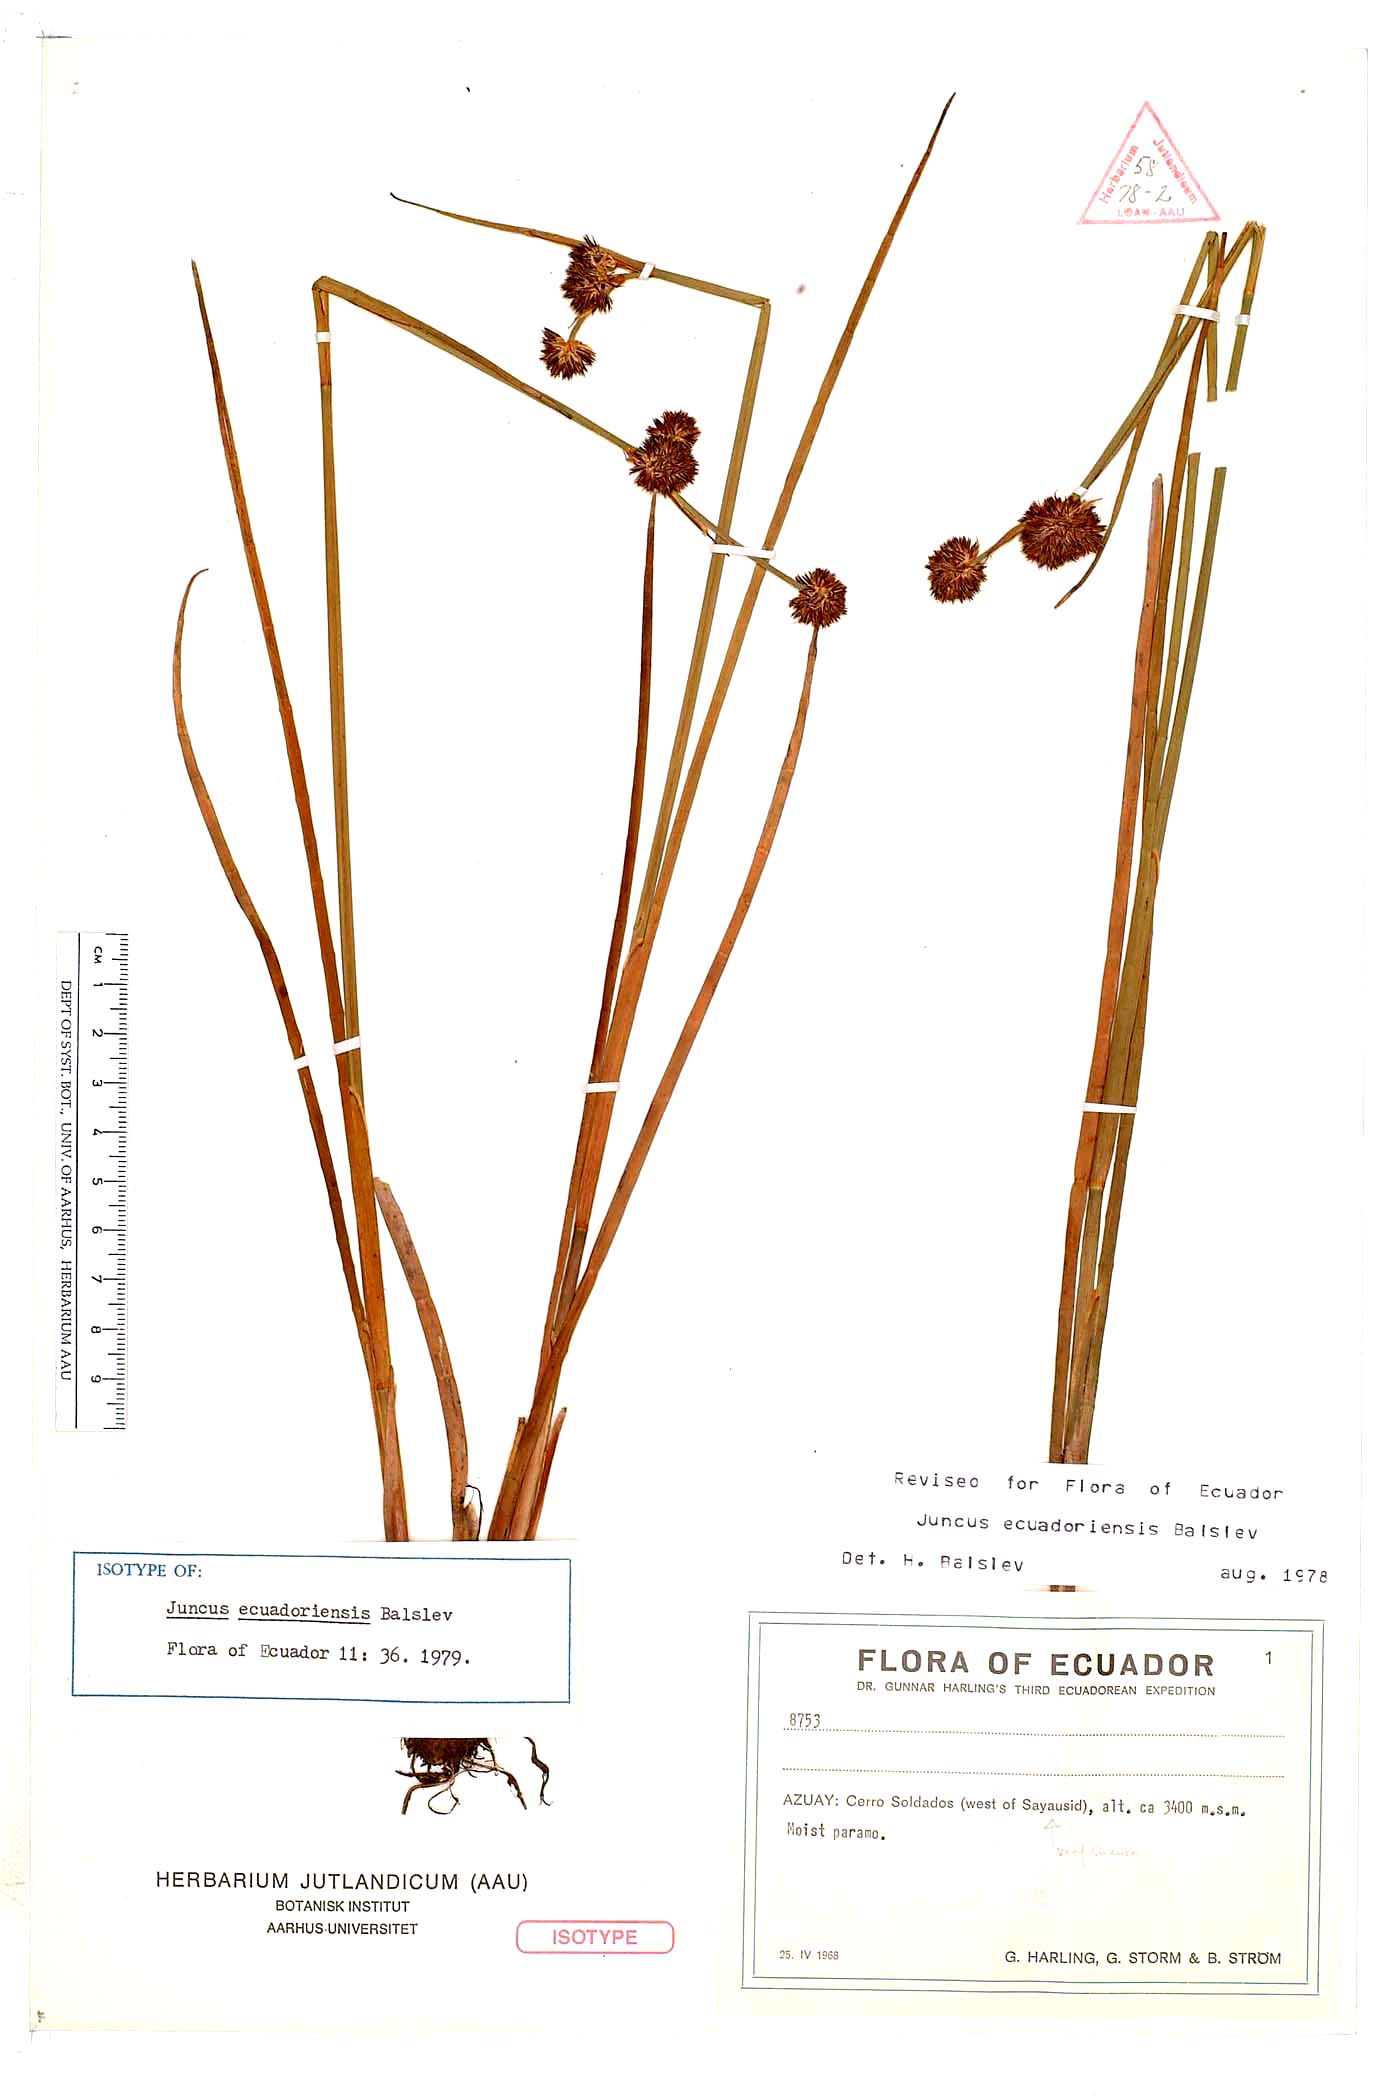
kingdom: Plantae
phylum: Tracheophyta
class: Liliopsida
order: Poales
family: Juncaceae
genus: Juncus
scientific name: Juncus ecuadoriensis
